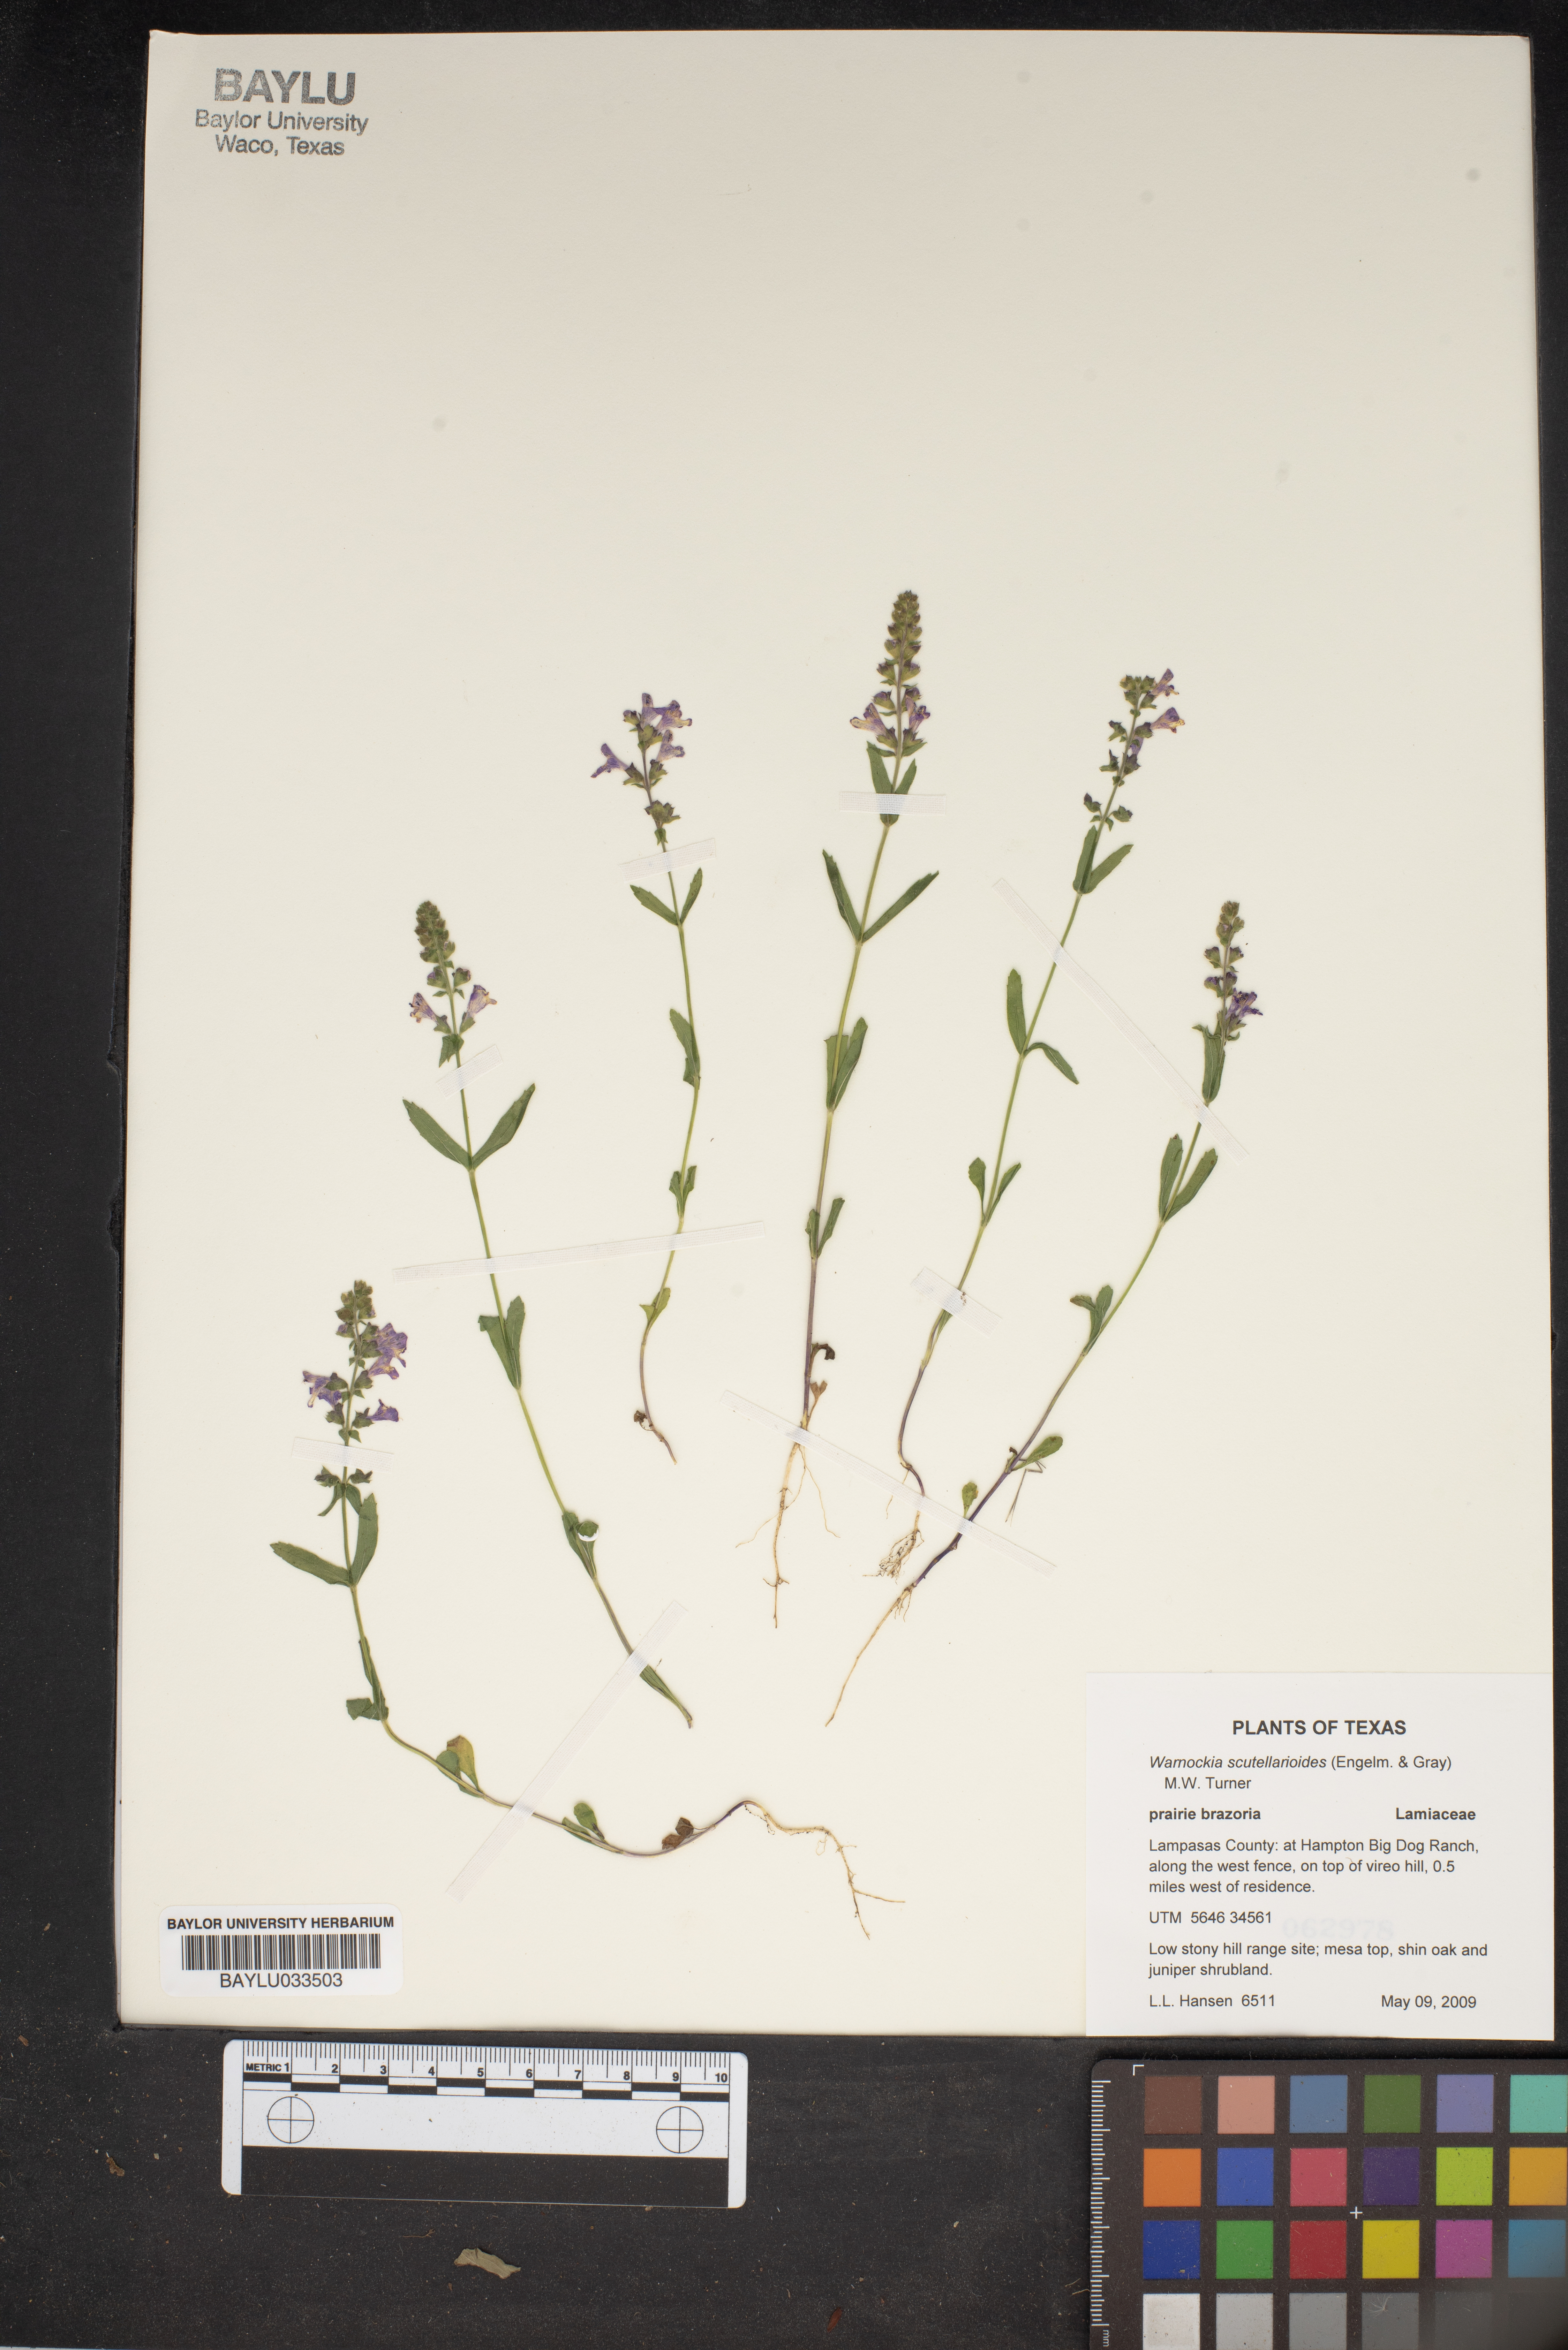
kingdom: Plantae
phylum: Tracheophyta
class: Magnoliopsida
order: Lamiales
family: Lamiaceae
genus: Warnockia
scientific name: Warnockia scutellarioides
